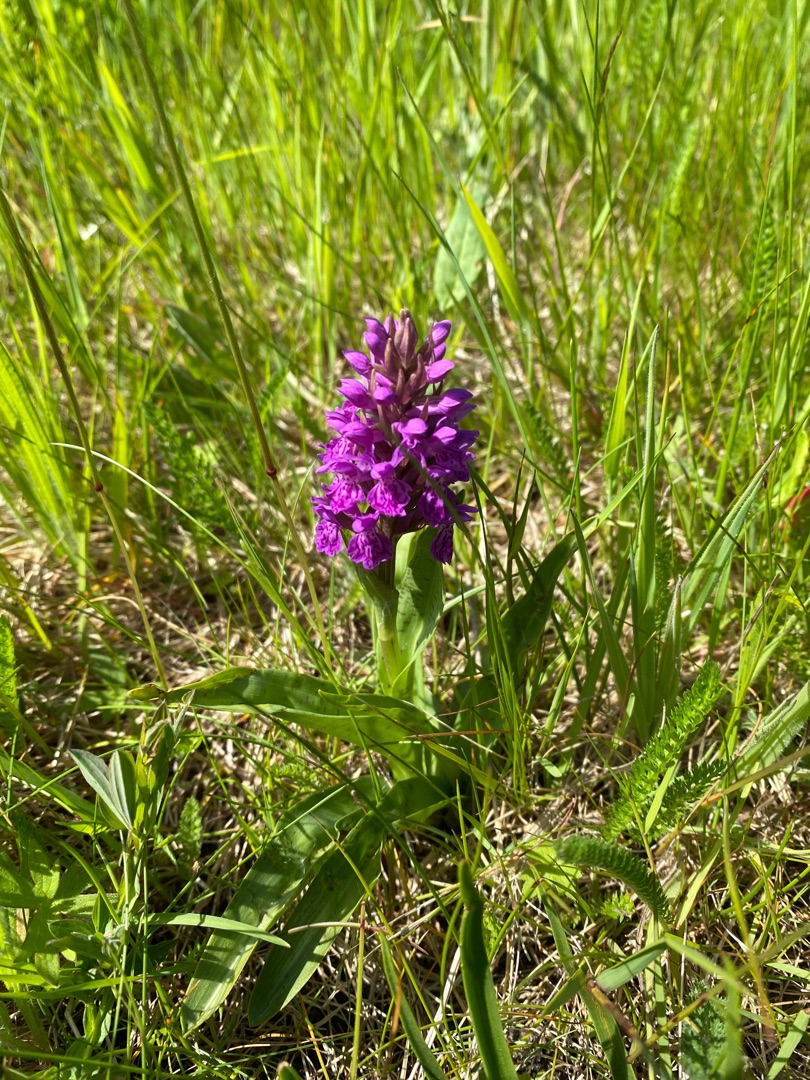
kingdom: Plantae
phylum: Tracheophyta
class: Liliopsida
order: Asparagales
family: Orchidaceae
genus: Dactylorhiza
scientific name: Dactylorhiza majalis
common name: Vendsyssel-gøgeurt
